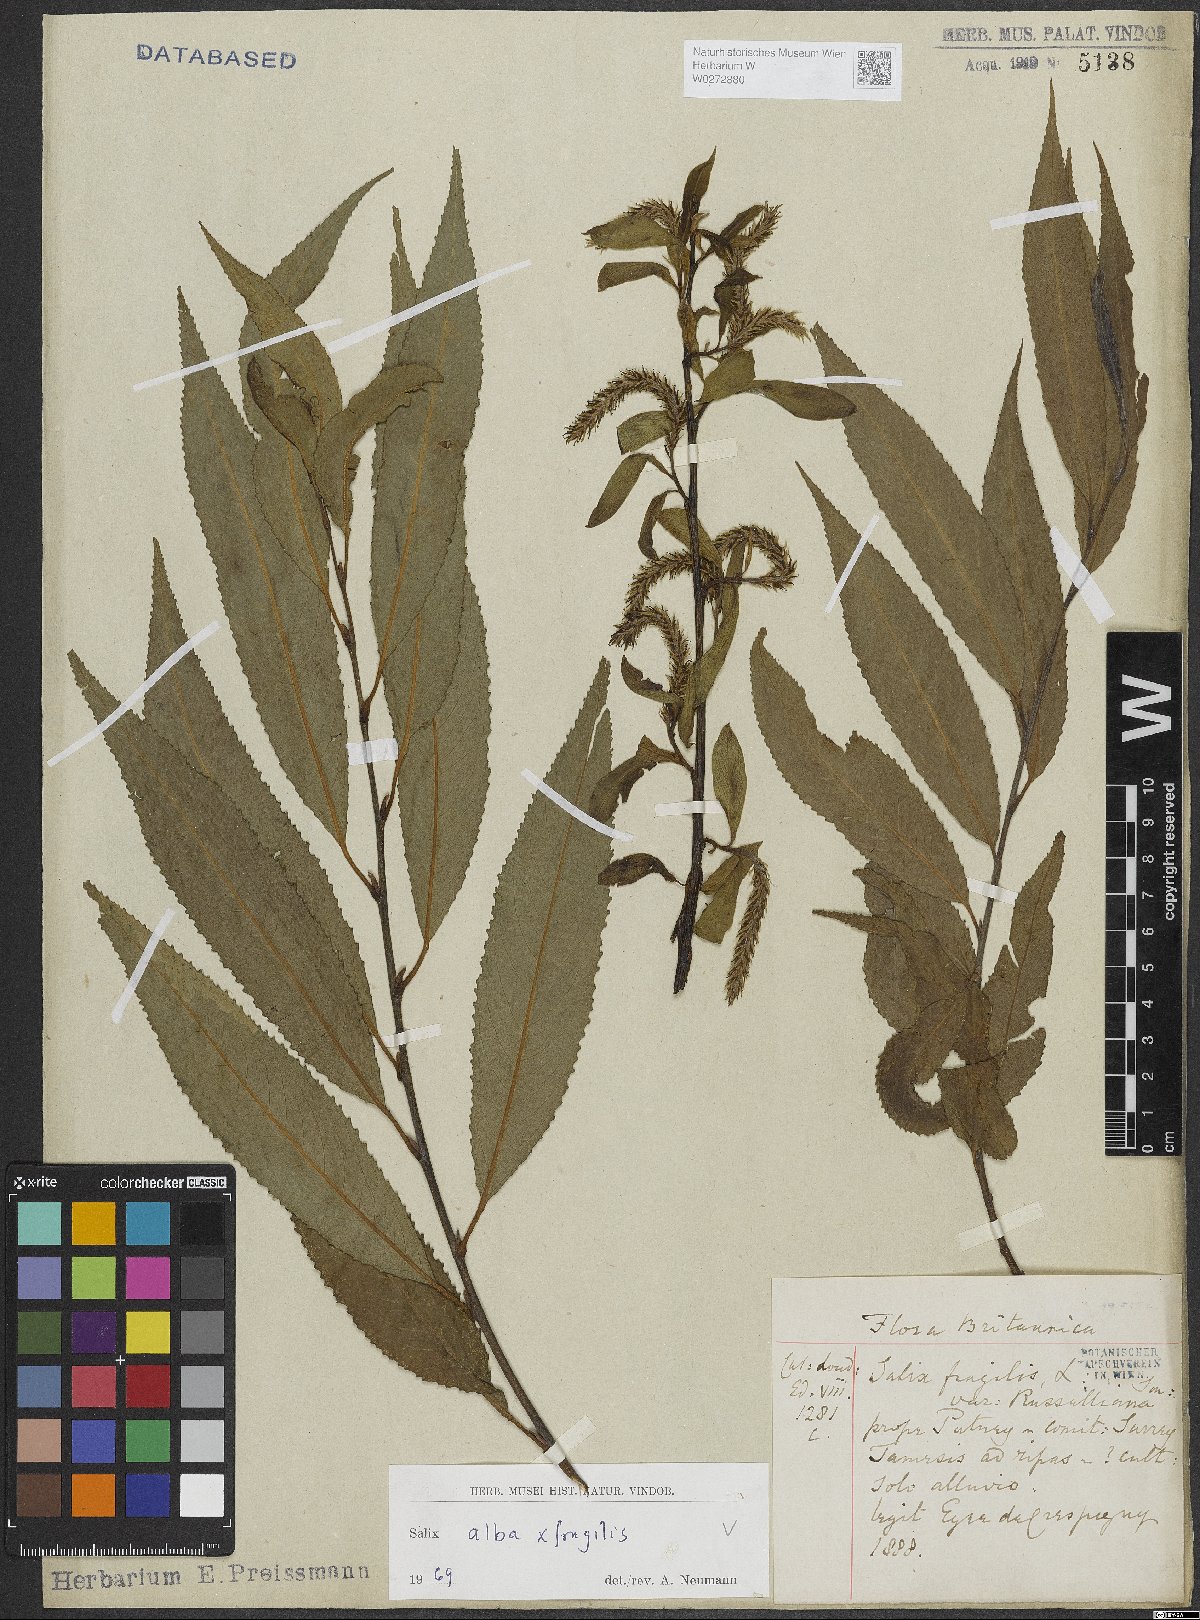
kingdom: Plantae
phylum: Tracheophyta
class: Magnoliopsida
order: Malpighiales
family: Salicaceae
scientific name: Salicaceae
